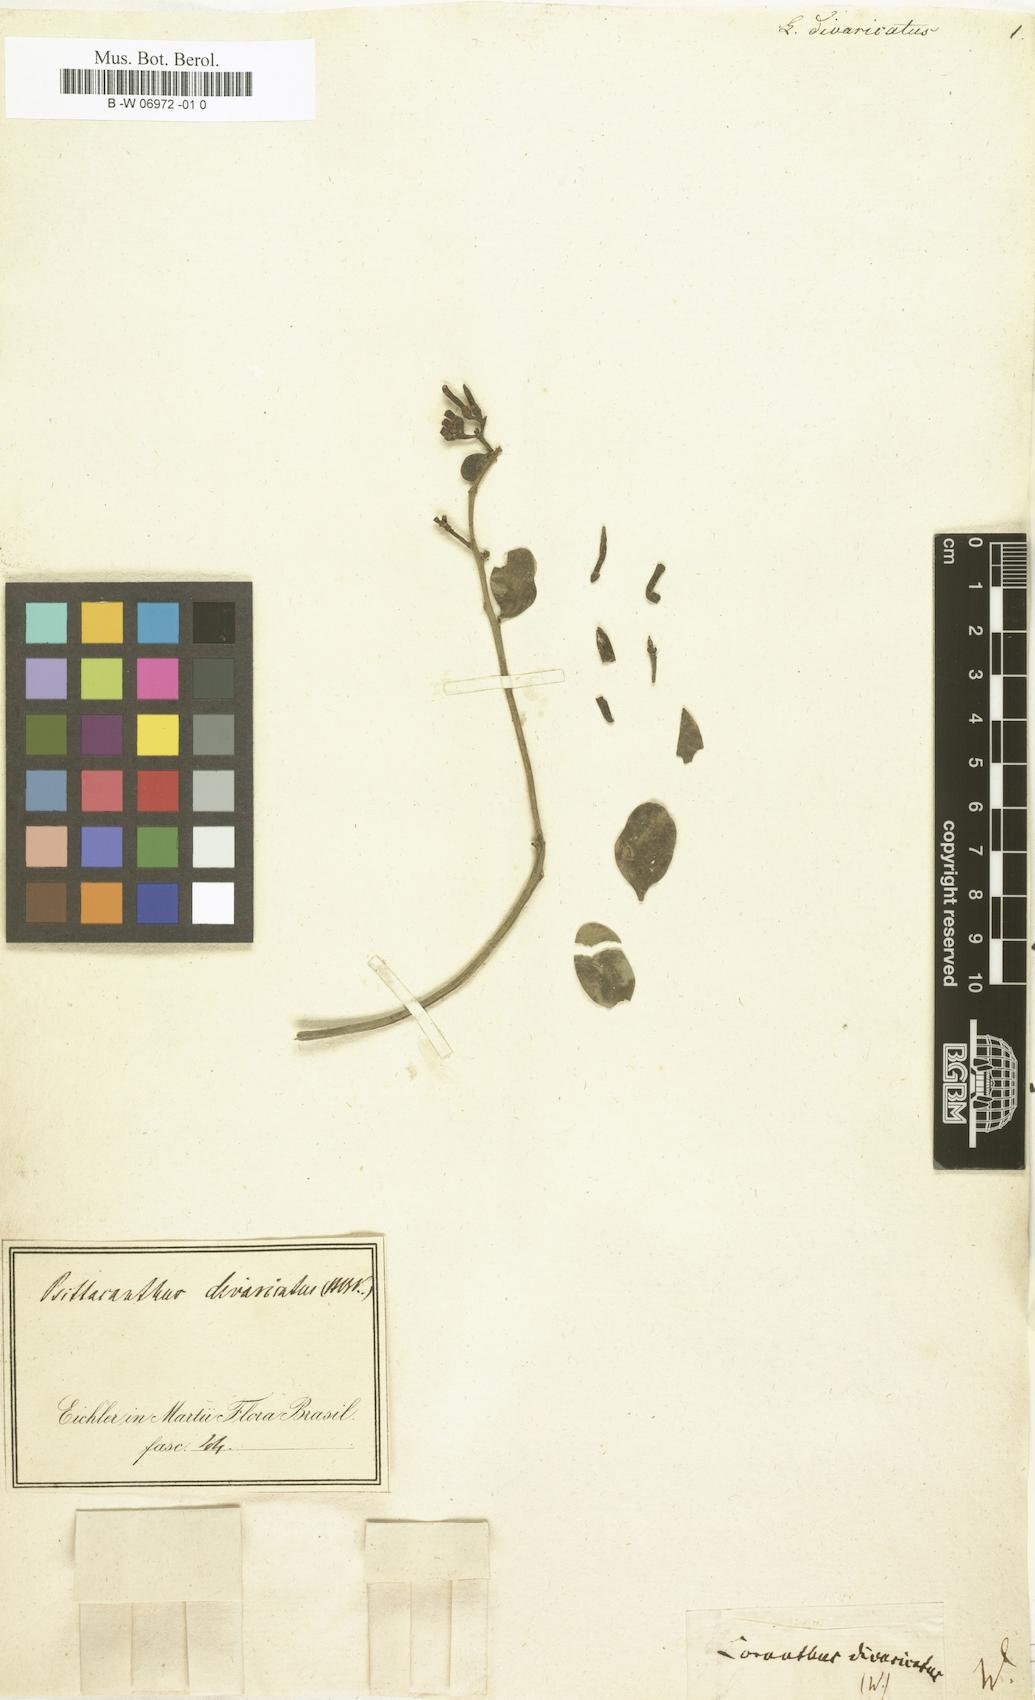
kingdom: Plantae
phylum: Tracheophyta
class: Magnoliopsida
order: Santalales
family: Loranthaceae
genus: Psittacanthus
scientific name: Psittacanthus divaricatus
